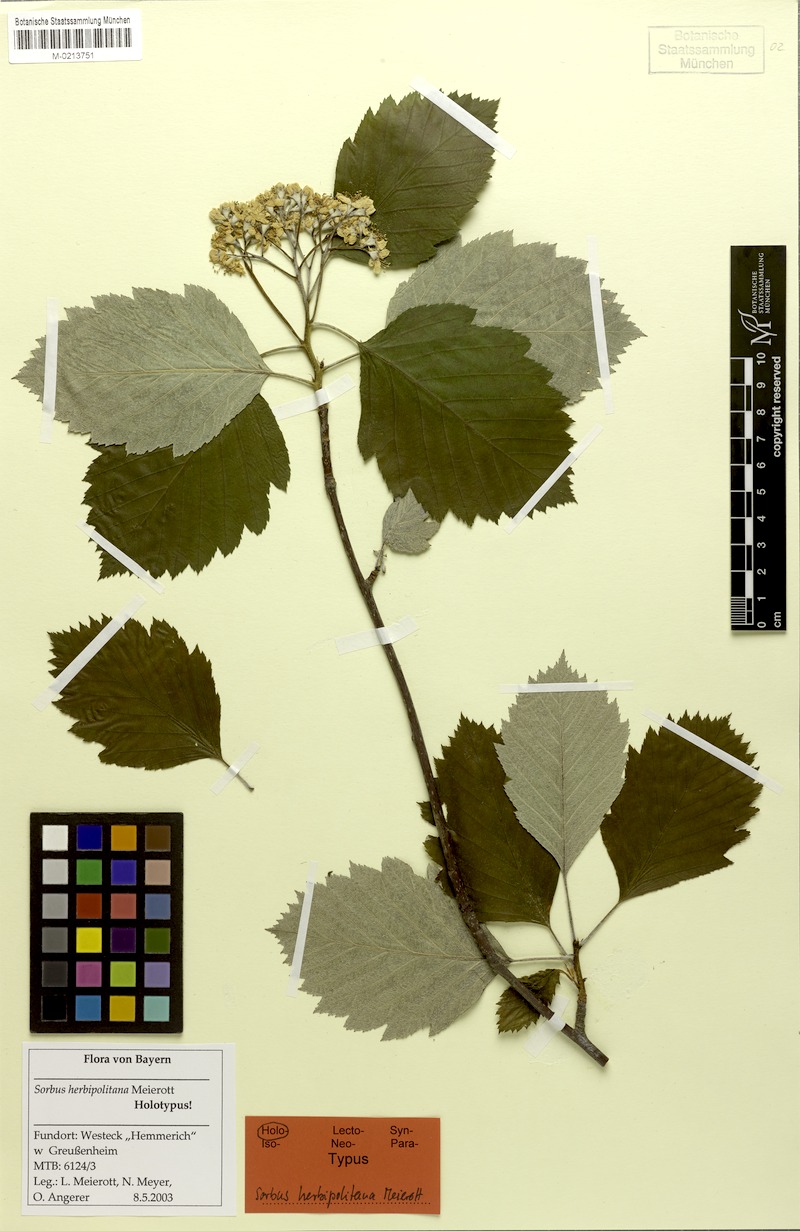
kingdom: Plantae
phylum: Tracheophyta
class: Magnoliopsida
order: Rosales
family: Rosaceae
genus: Karpatiosorbus
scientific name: Karpatiosorbus herbipolitana
